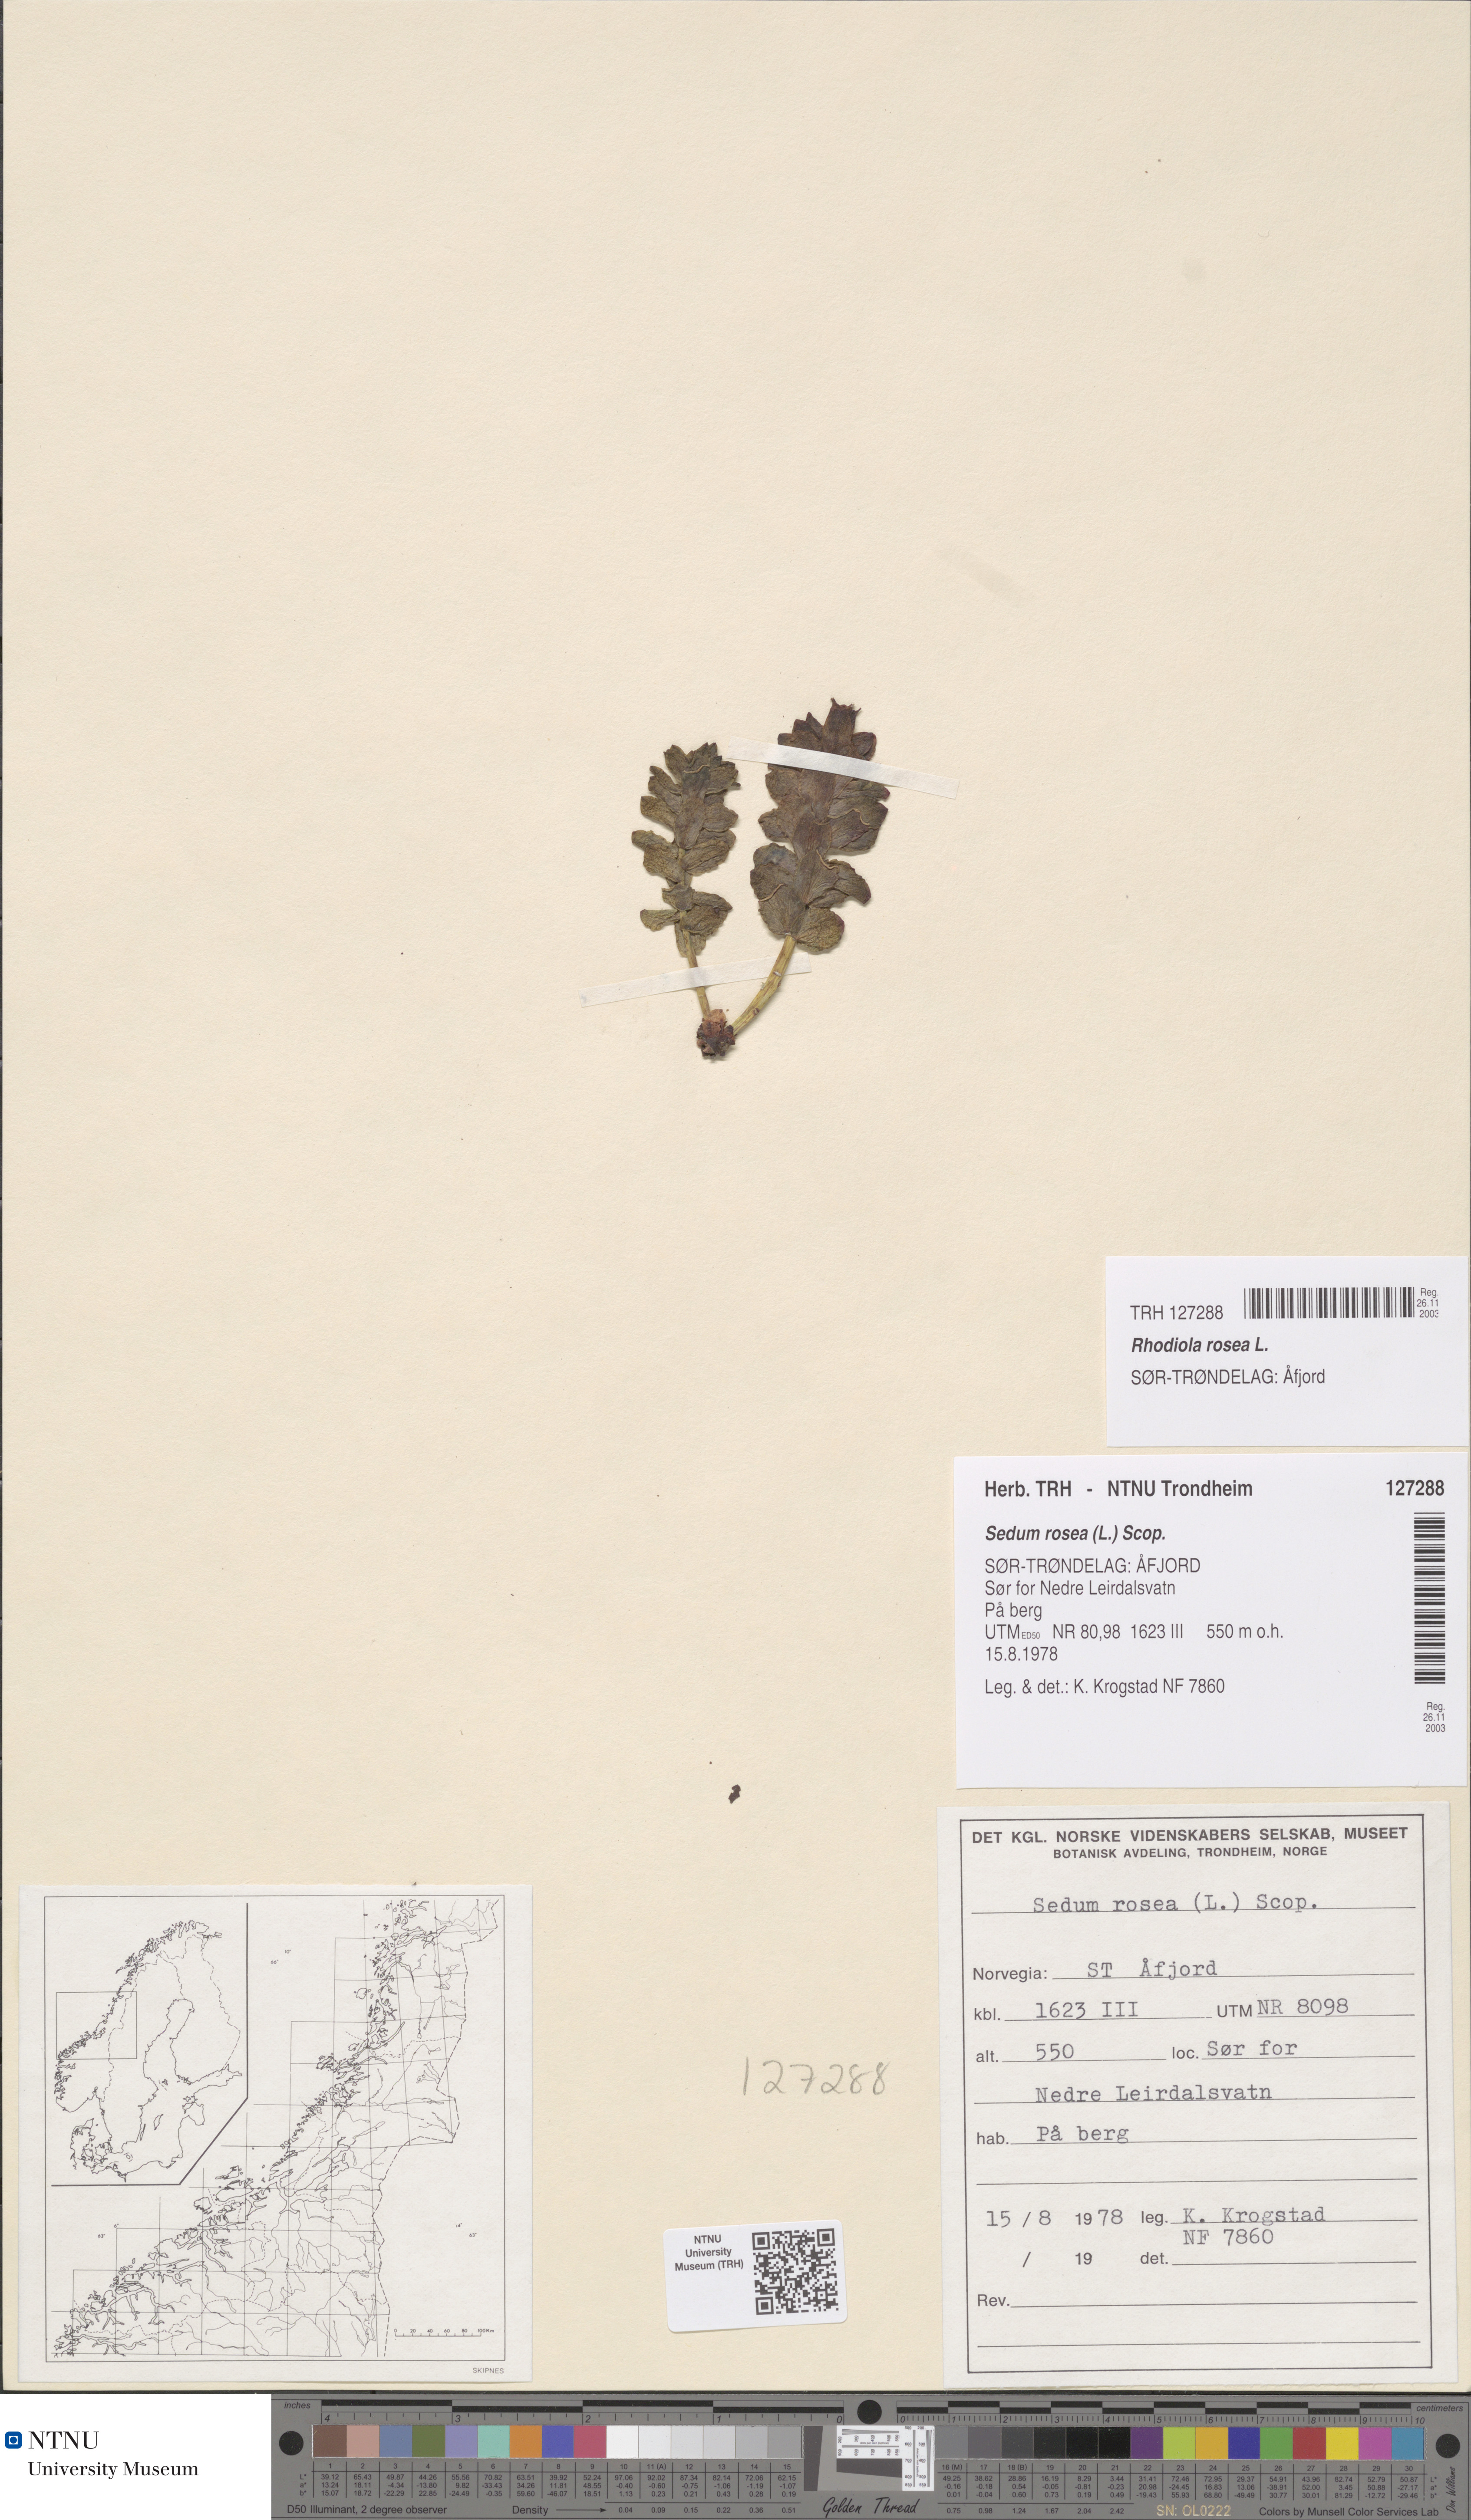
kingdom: Plantae
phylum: Tracheophyta
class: Magnoliopsida
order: Saxifragales
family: Crassulaceae
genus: Rhodiola
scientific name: Rhodiola rosea
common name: Roseroot
